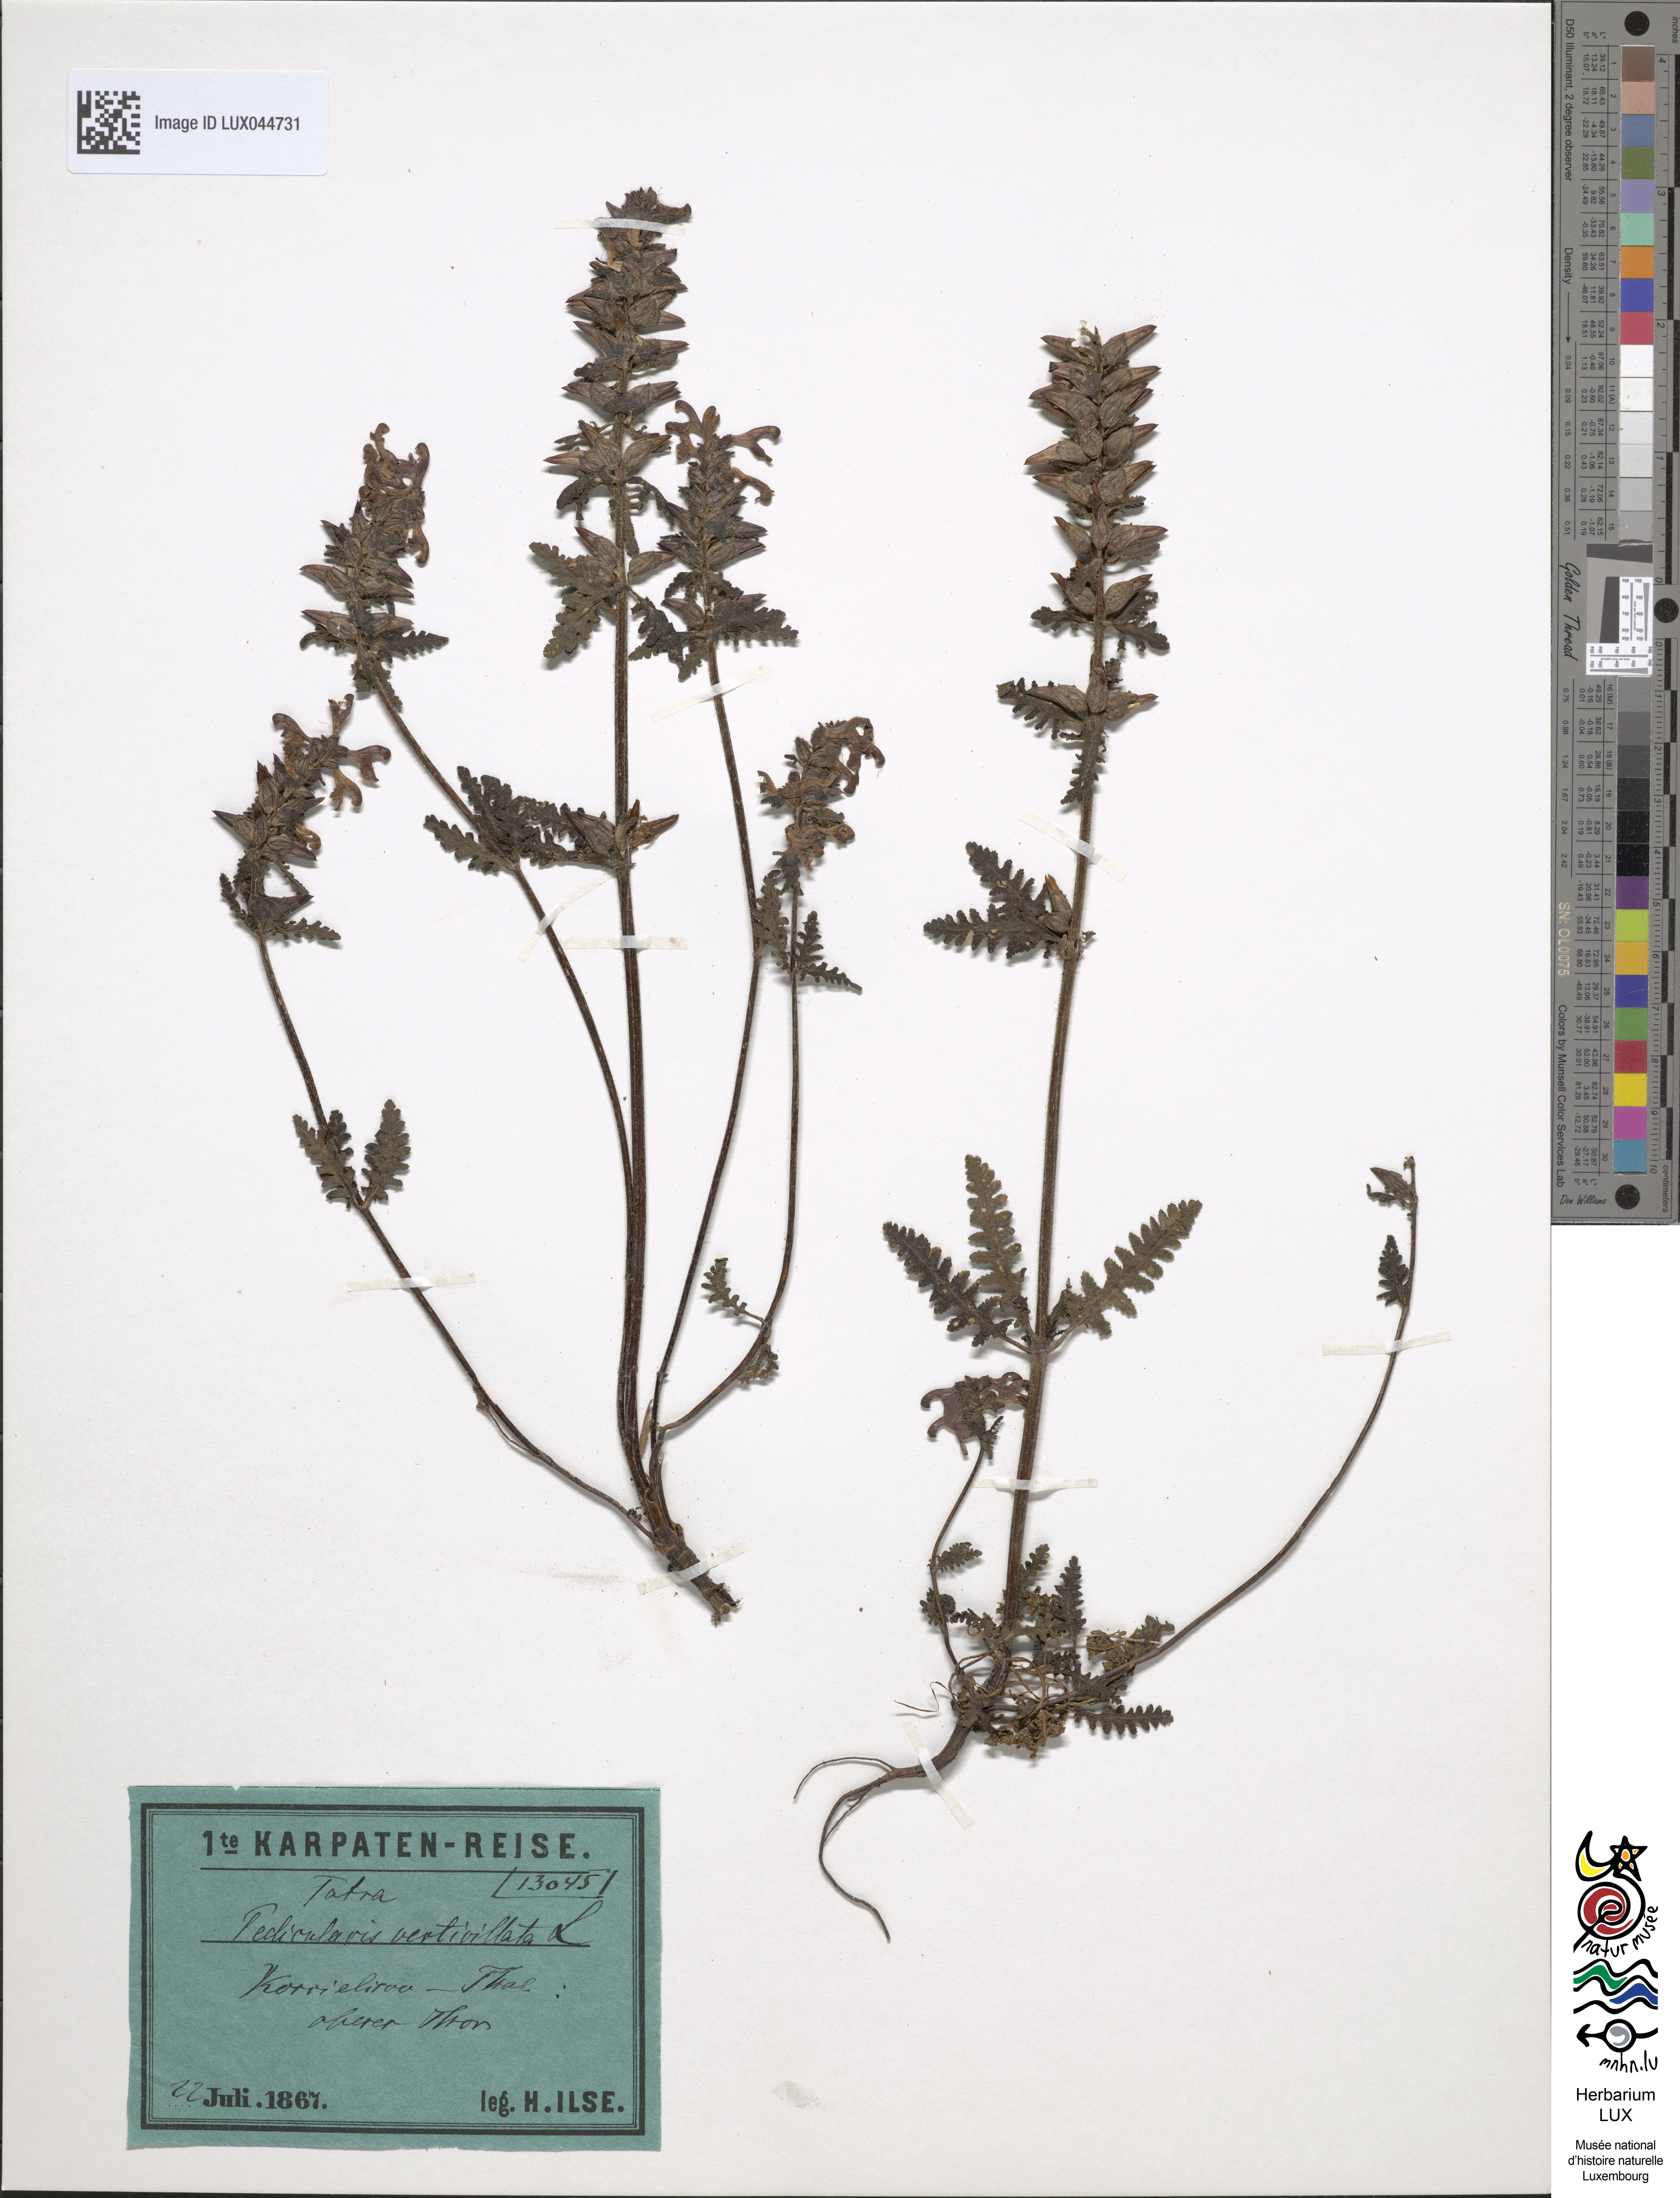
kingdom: Plantae
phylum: Tracheophyta
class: Magnoliopsida
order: Lamiales
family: Orobanchaceae
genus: Pedicularis
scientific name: Pedicularis verticillata
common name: Whorled lousewort
